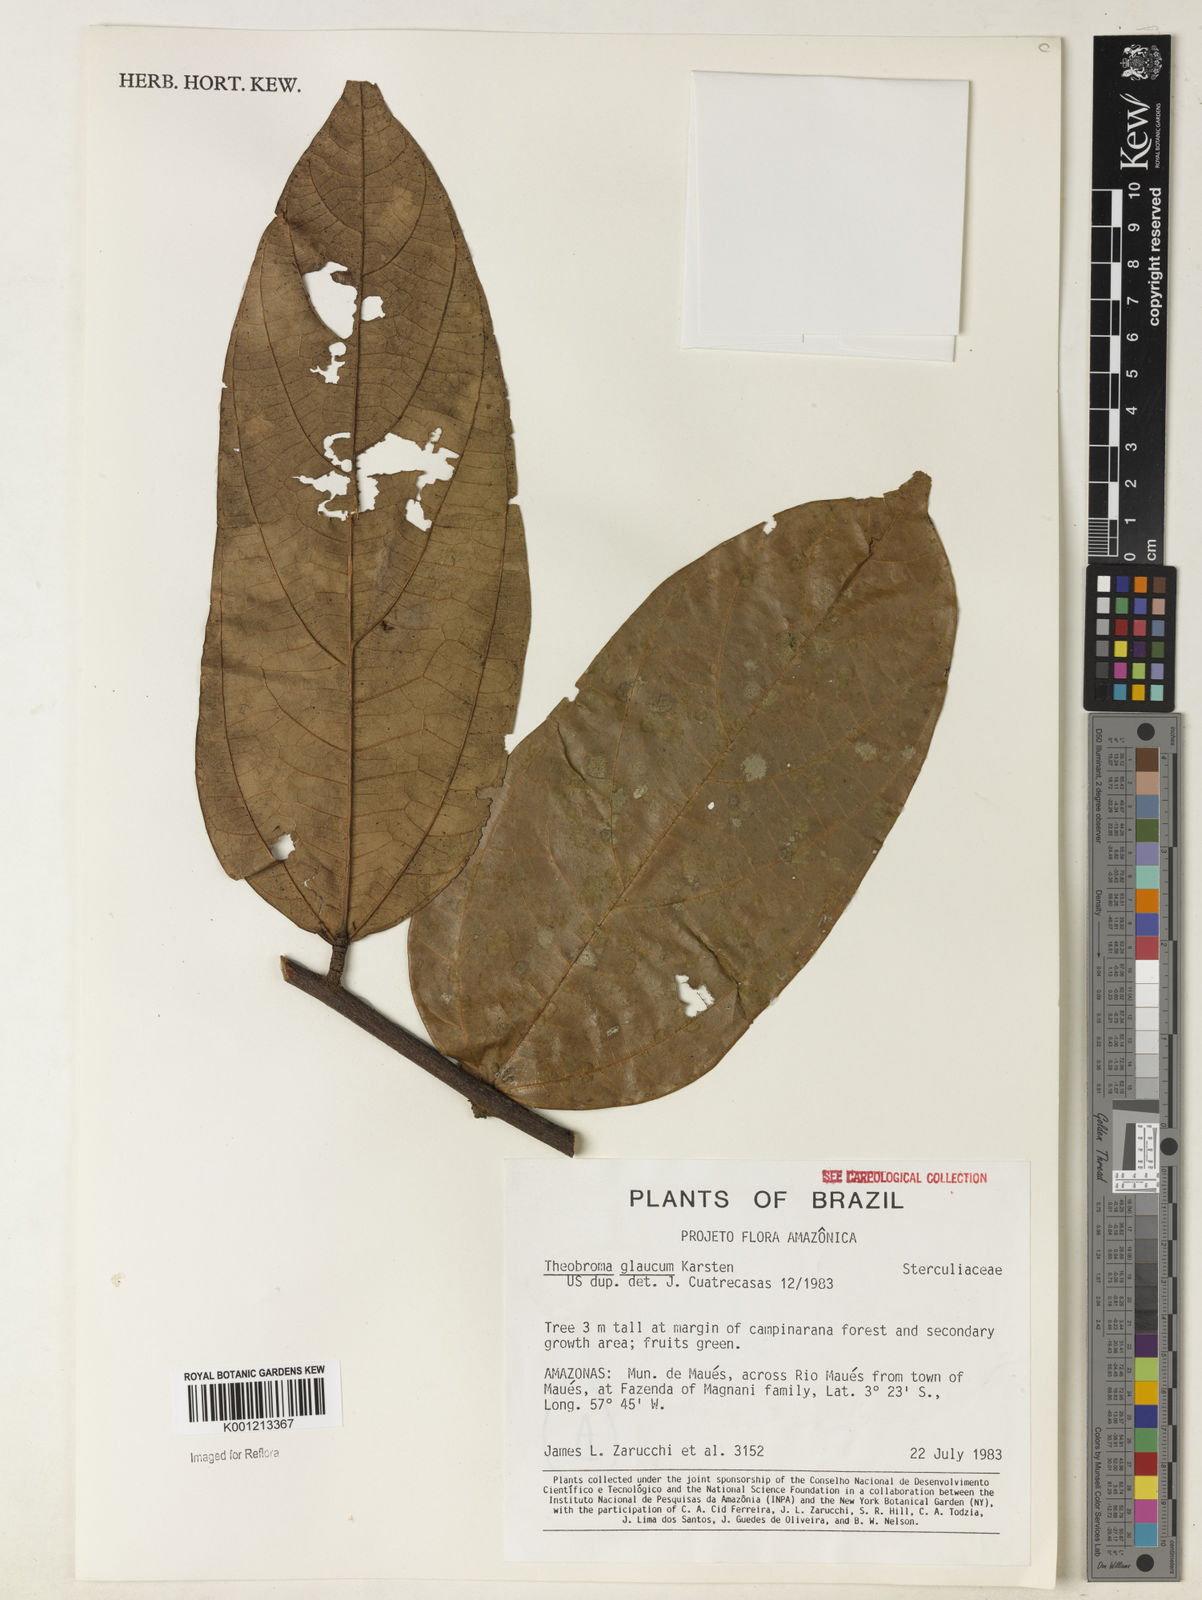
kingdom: Plantae
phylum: Tracheophyta
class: Magnoliopsida
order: Malvales
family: Malvaceae
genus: Theobroma
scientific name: Theobroma sylvestre
